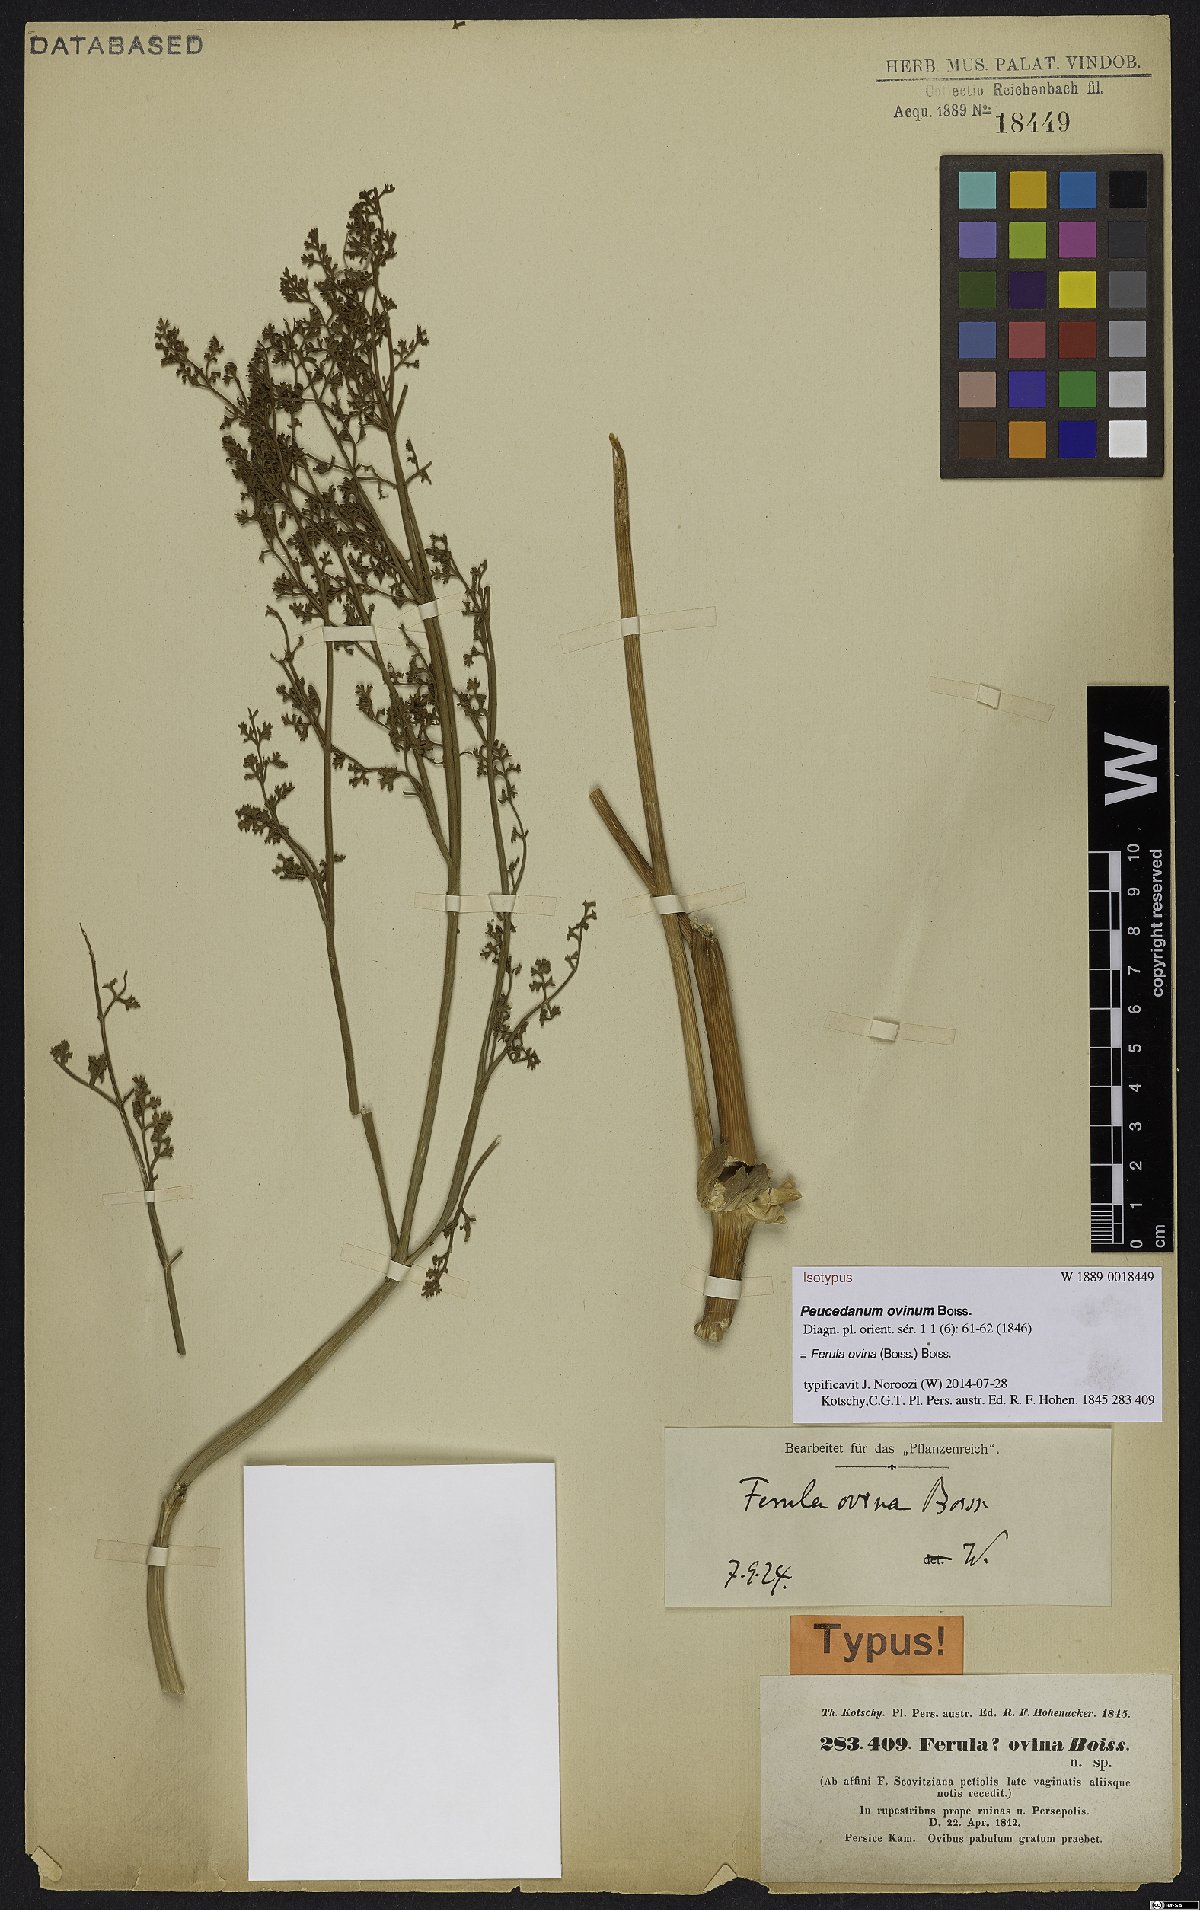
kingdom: Plantae
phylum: Tracheophyta
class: Magnoliopsida
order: Apiales
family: Apiaceae
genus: Ferula
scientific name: Ferula ovina
